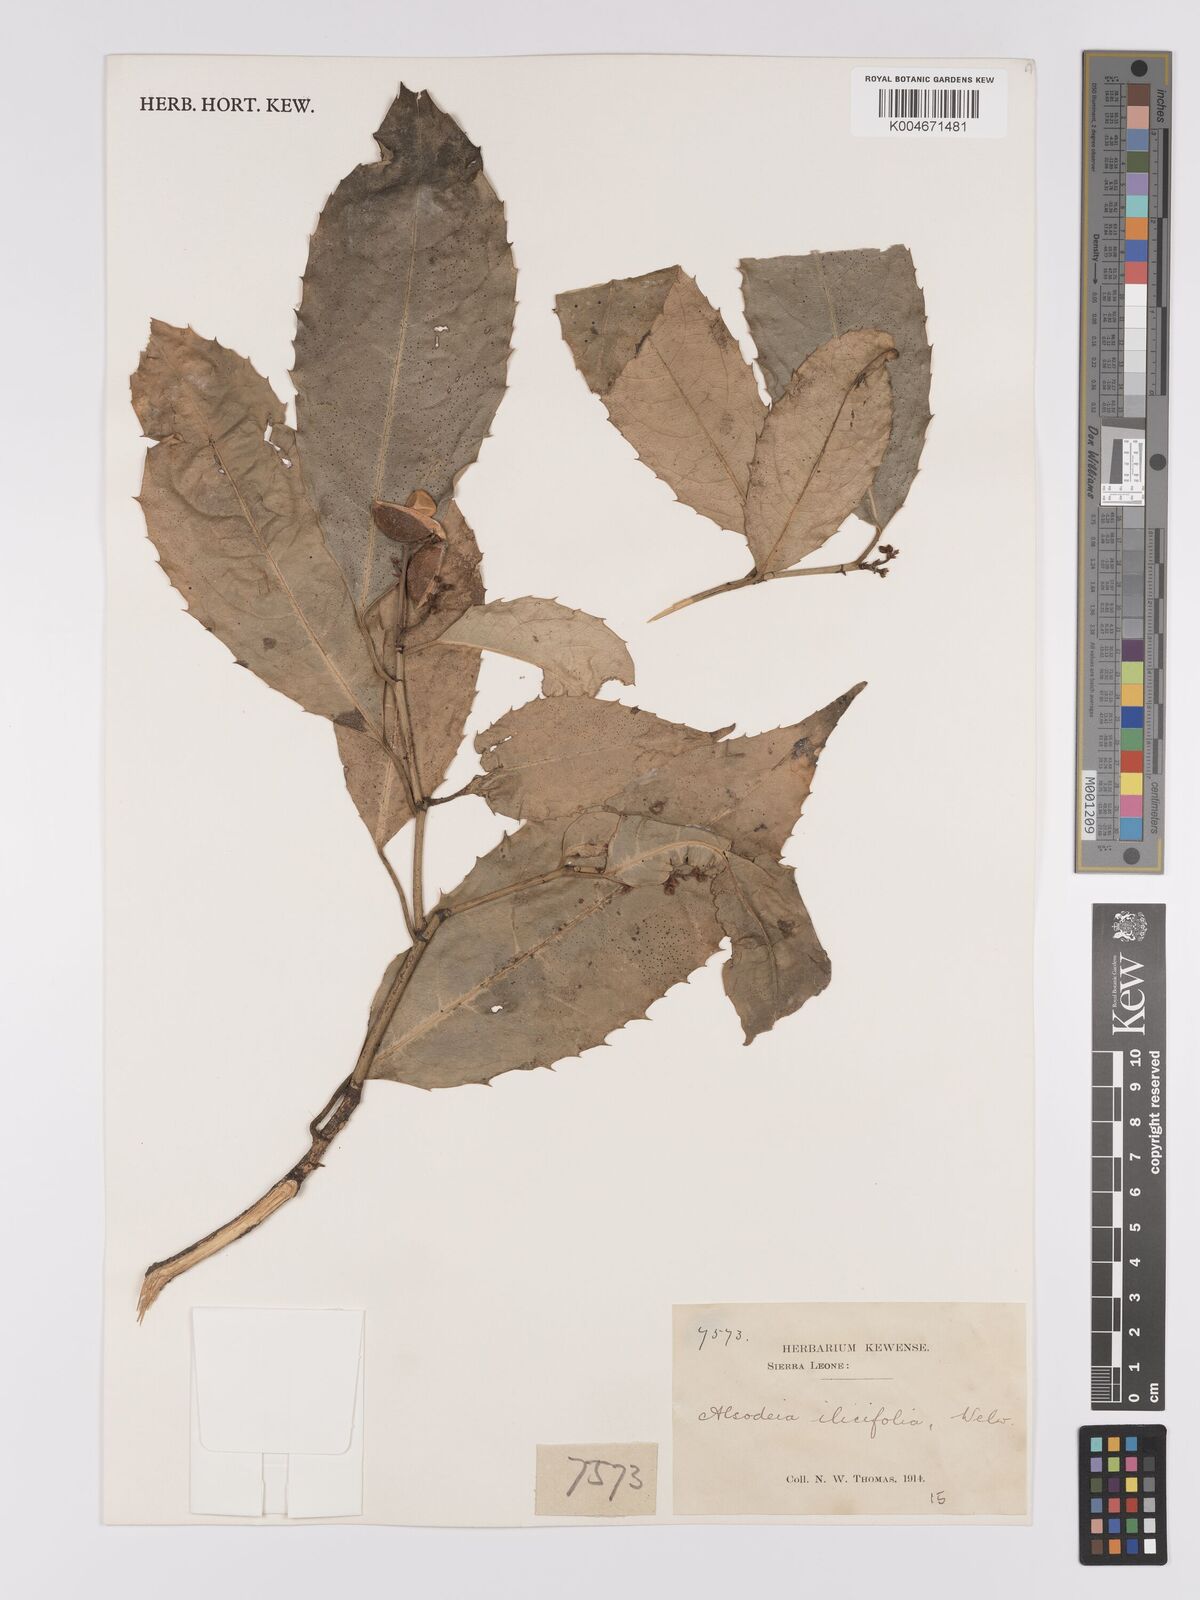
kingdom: Plantae
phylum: Tracheophyta
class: Magnoliopsida
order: Malpighiales
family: Violaceae
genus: Rinorea
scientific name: Rinorea ilicifolia
